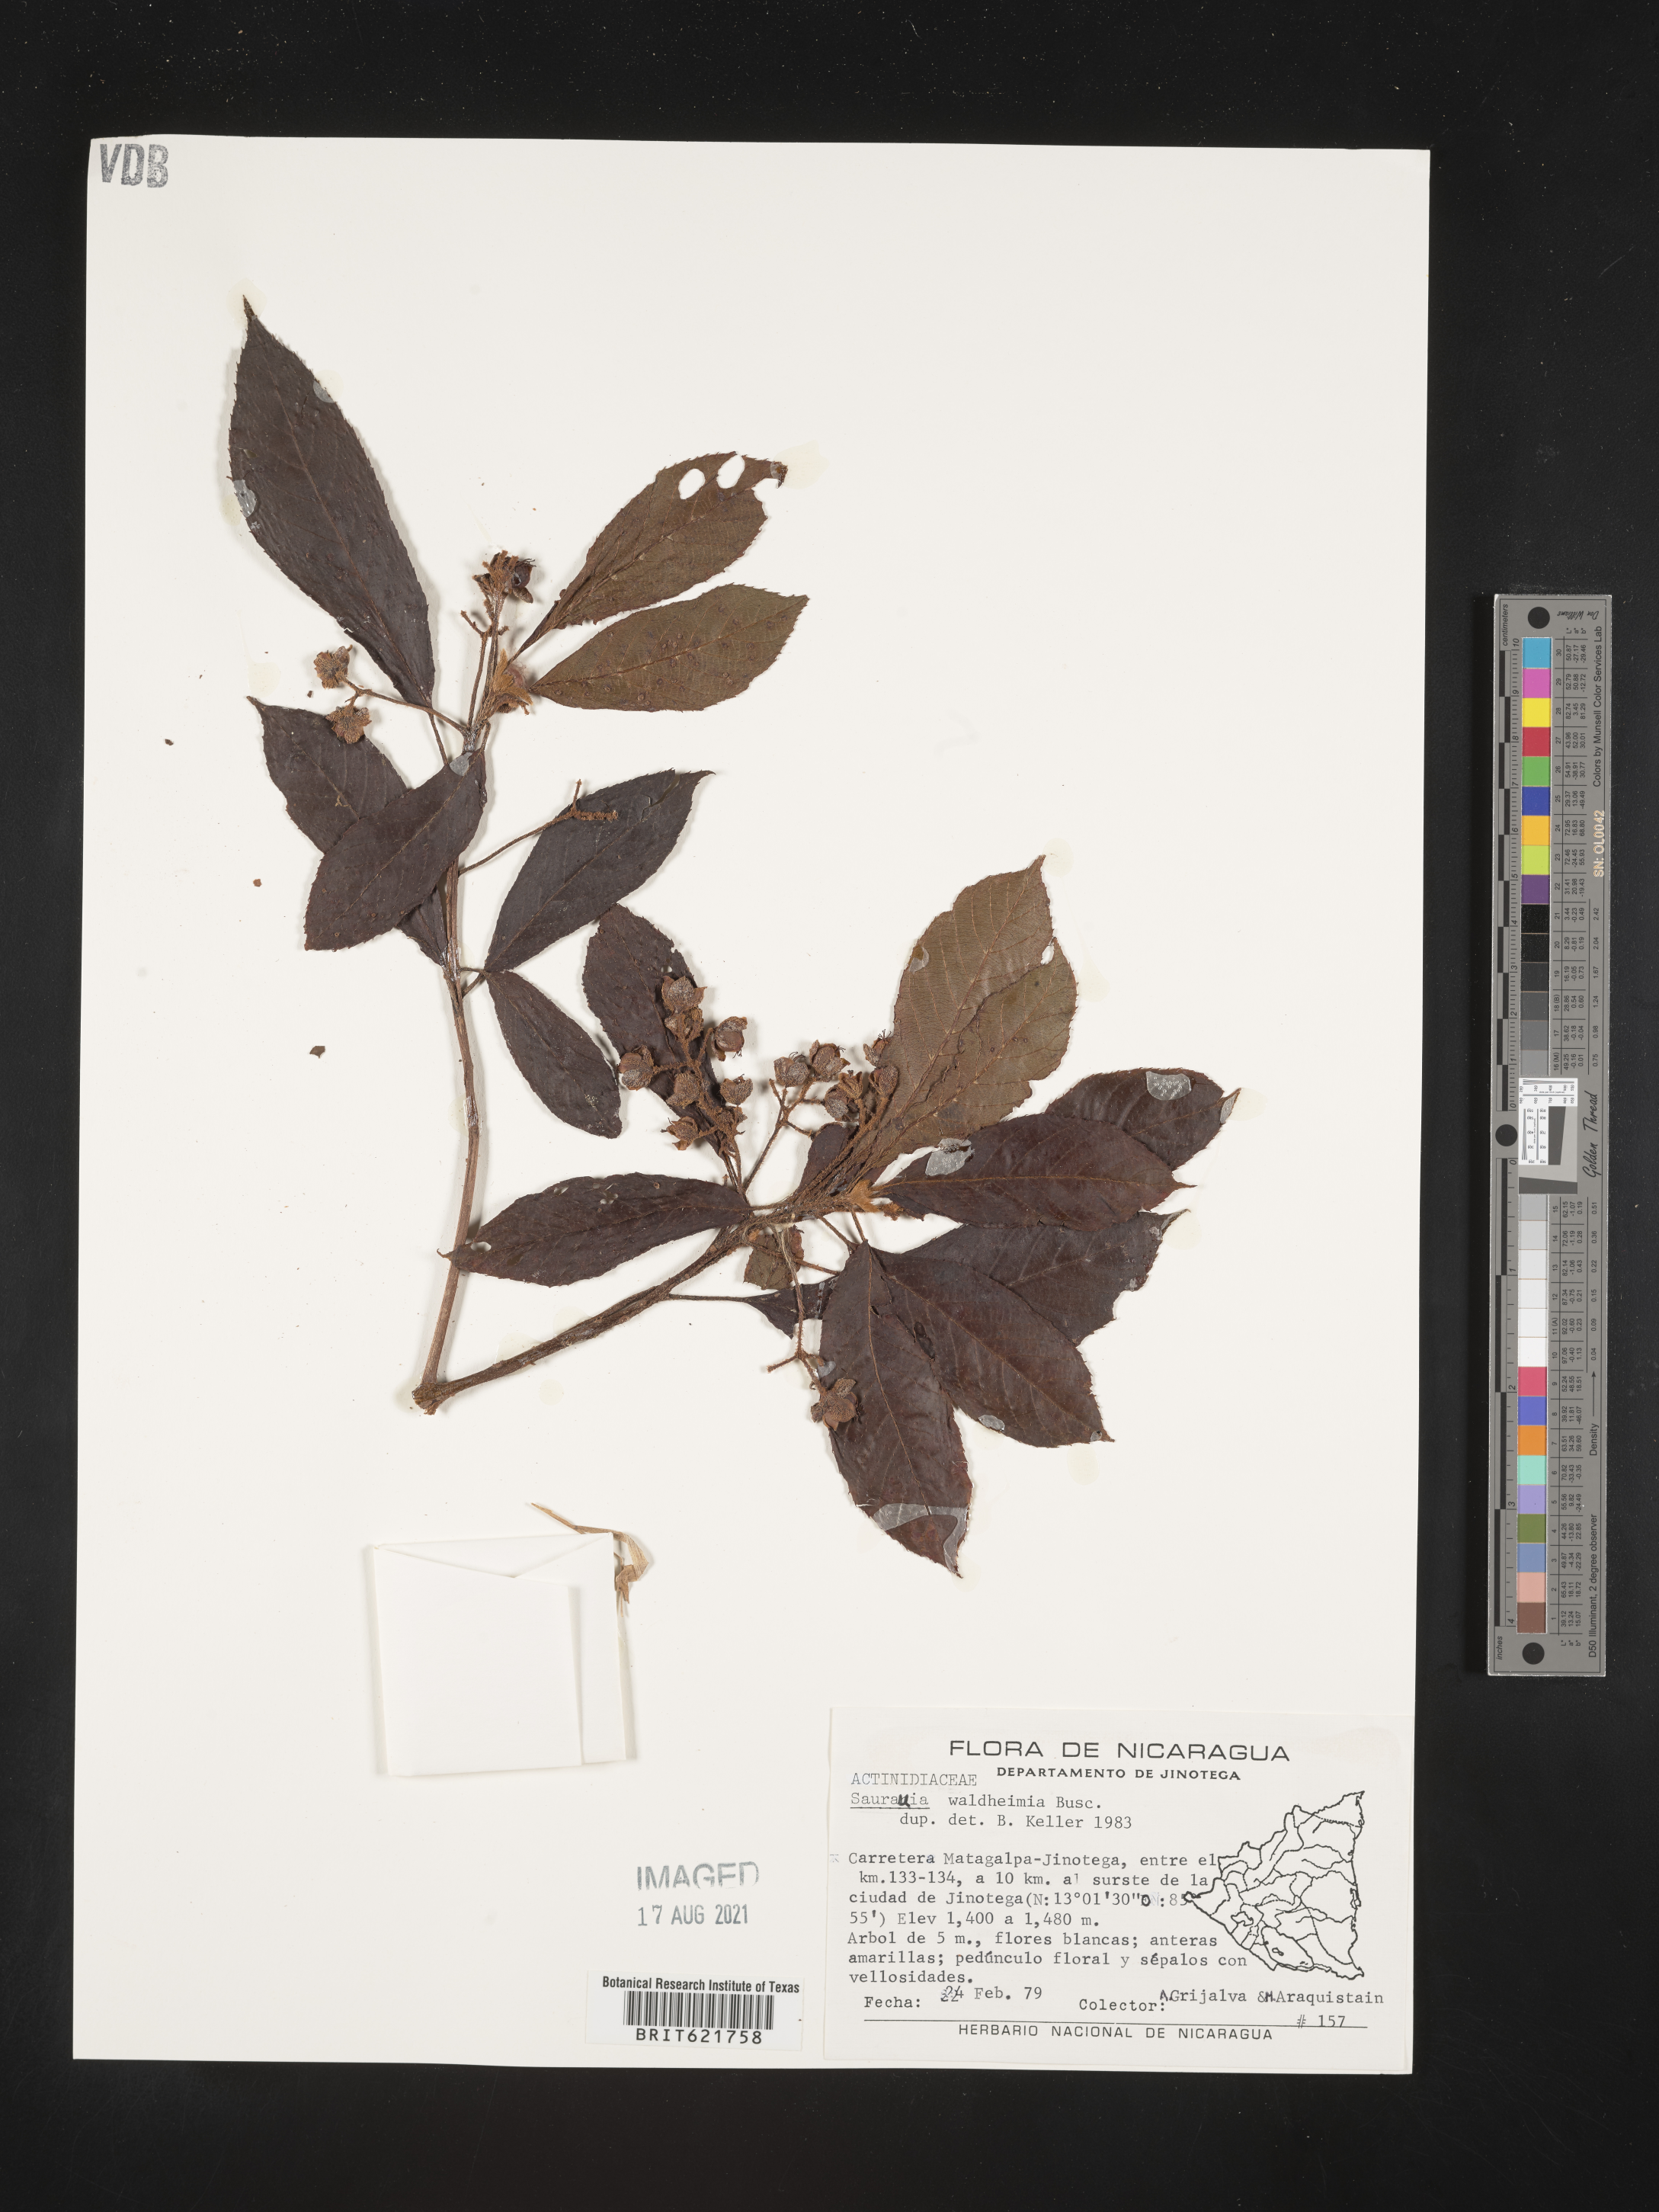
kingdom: Plantae
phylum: Tracheophyta
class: Magnoliopsida
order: Ericales
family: Actinidiaceae
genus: Saurauia
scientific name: Saurauia waldheimii
